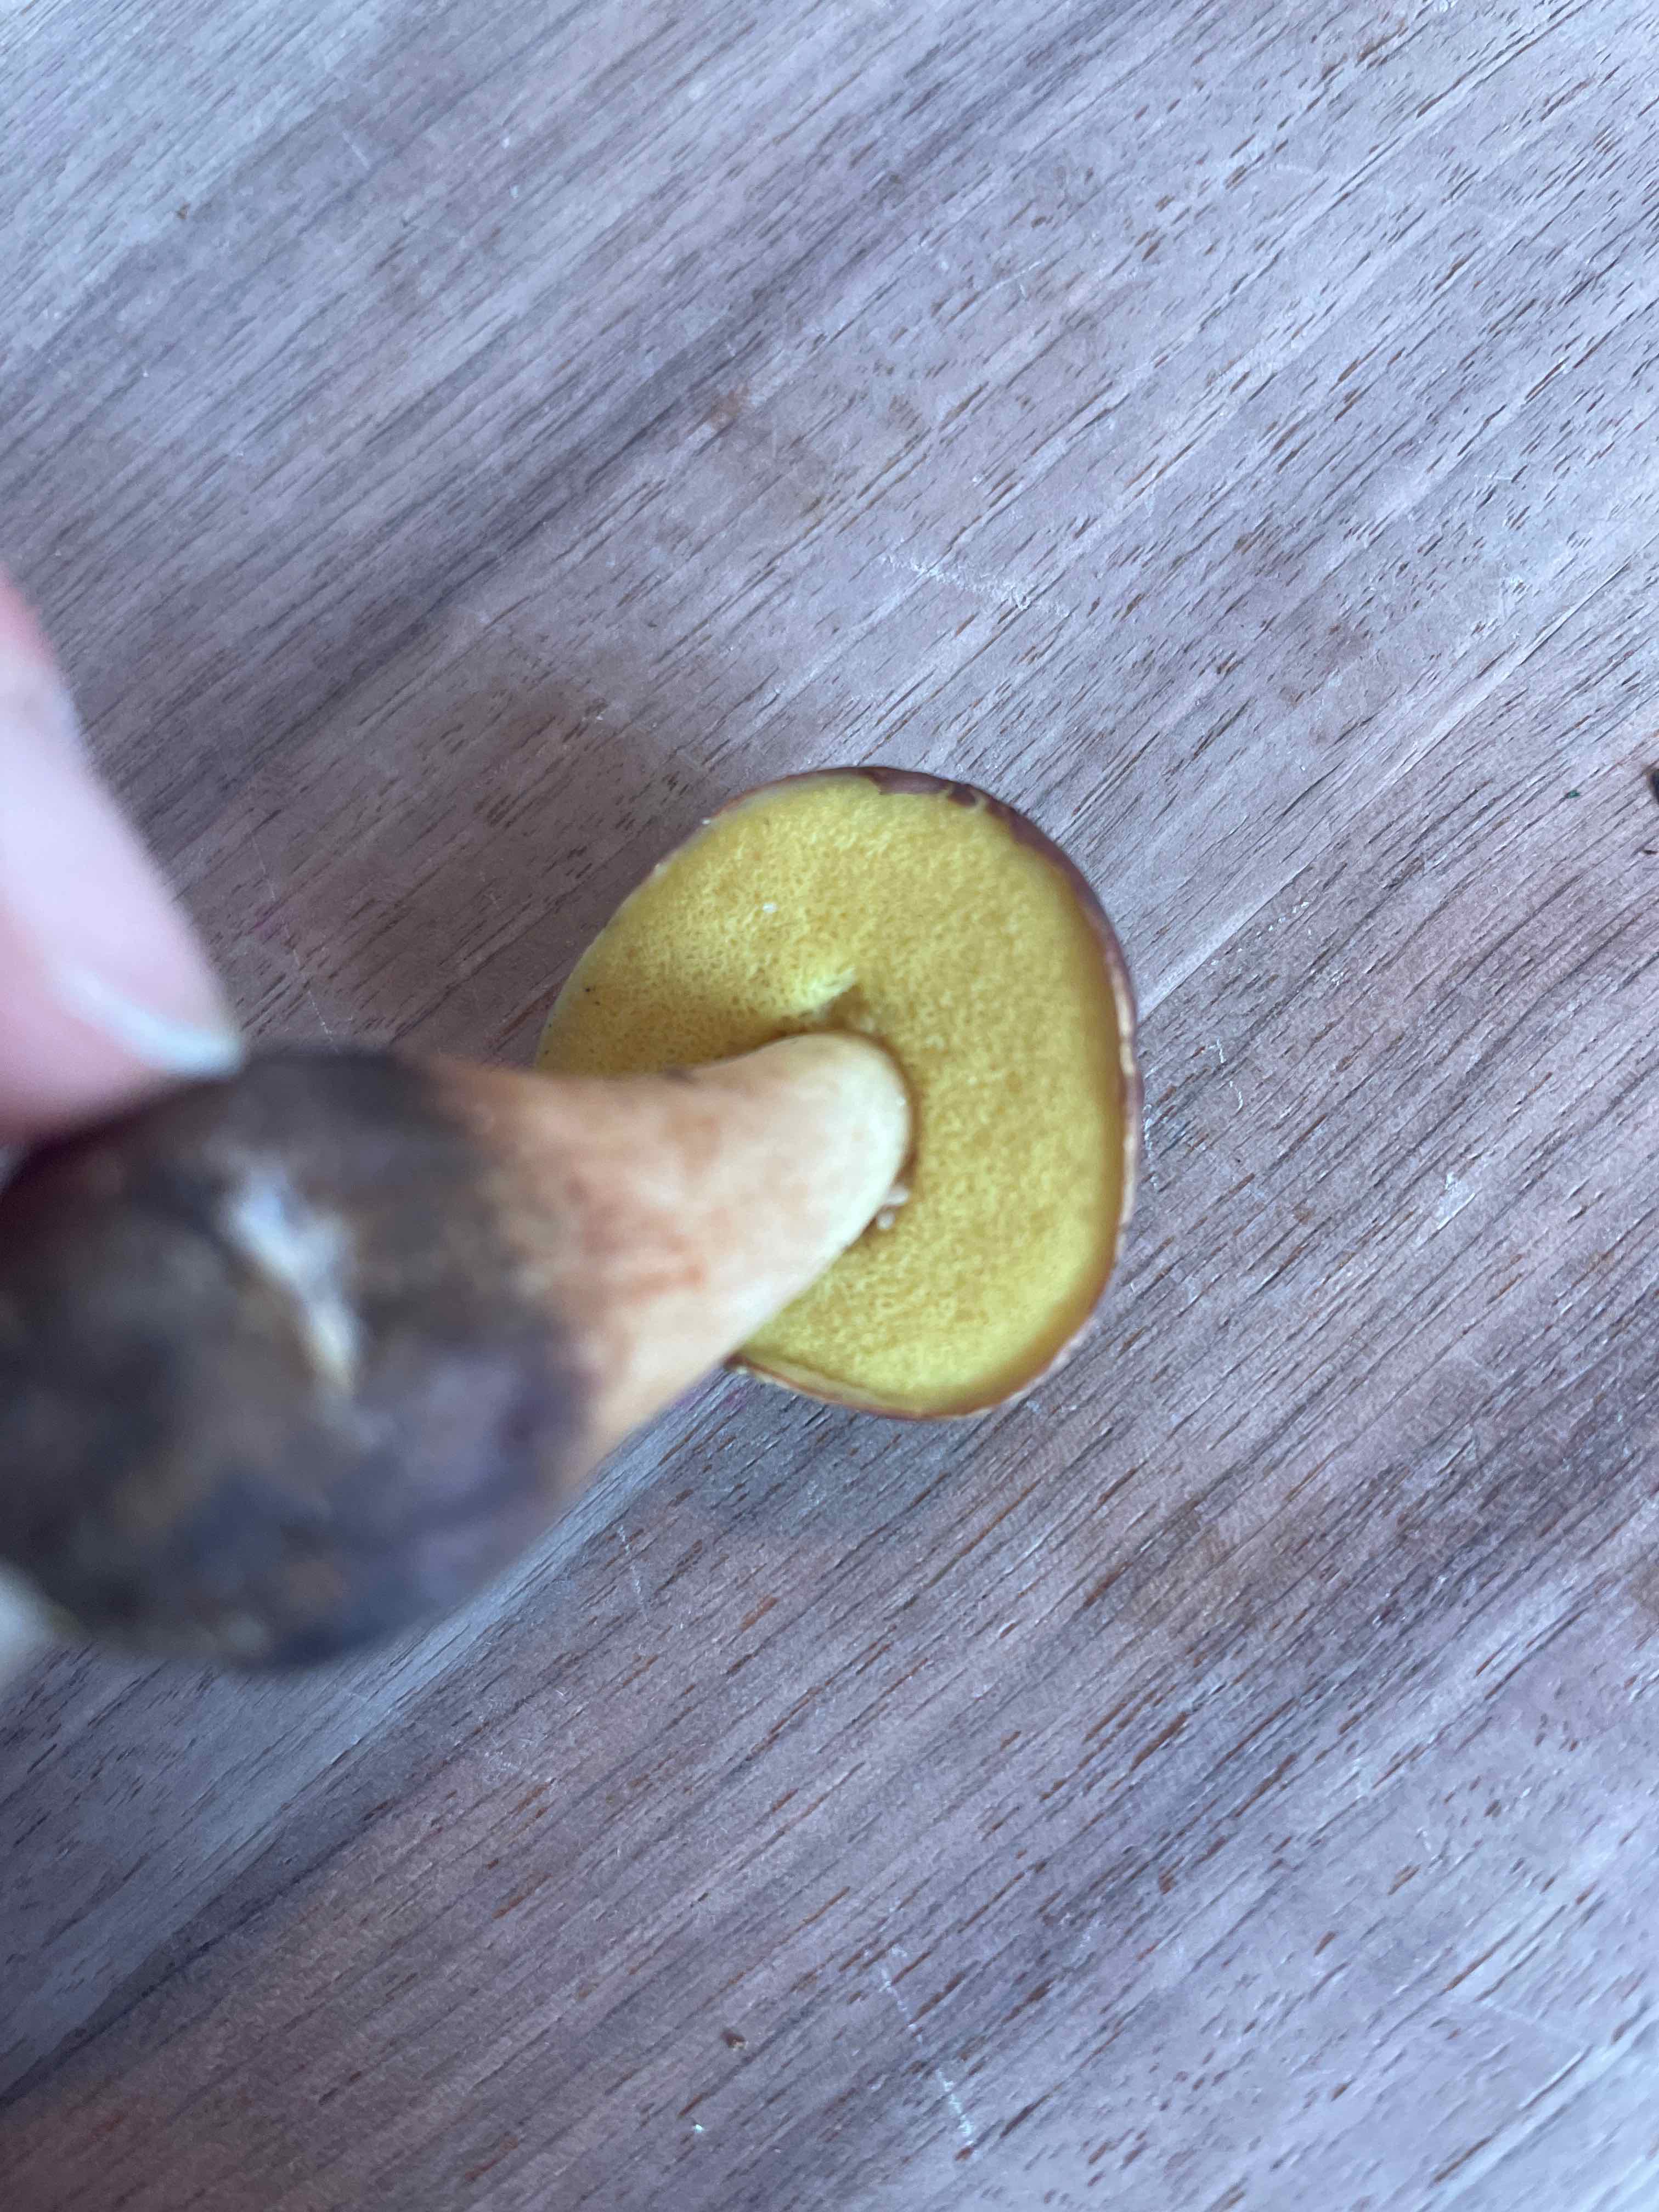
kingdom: Fungi
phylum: Basidiomycota
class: Agaricomycetes
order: Boletales
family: Boletaceae
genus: Xerocomellus
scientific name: Xerocomellus pruinatus
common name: dugget rørhat
